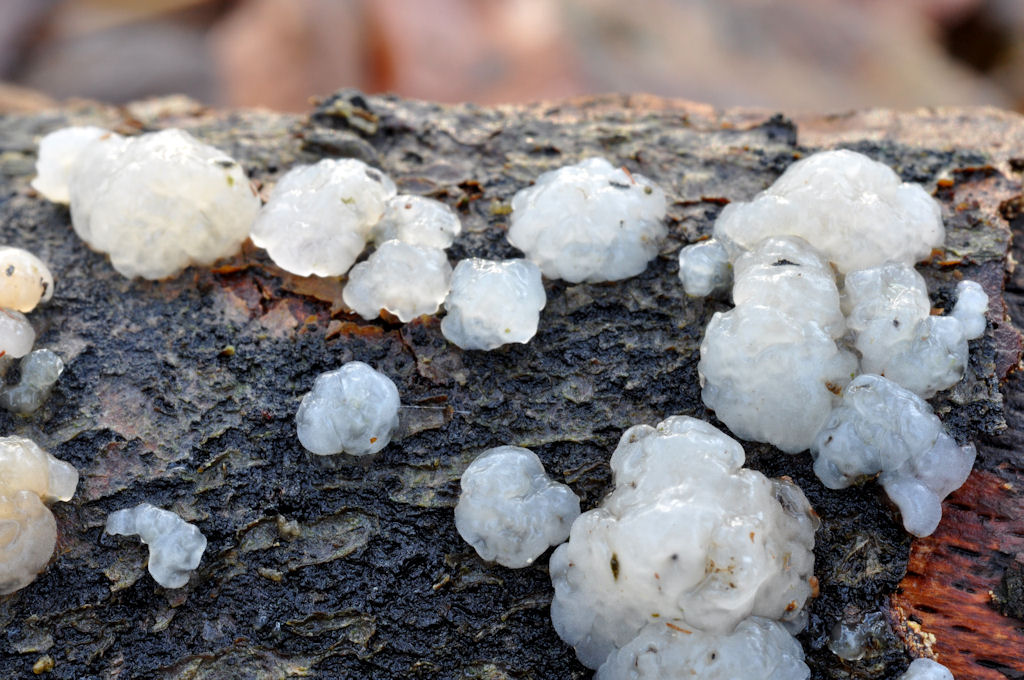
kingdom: Fungi
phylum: Basidiomycota
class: Agaricomycetes
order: Auriculariales
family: Hyaloriaceae
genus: Myxarium
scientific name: Myxarium nucleatum
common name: klar bævretop
